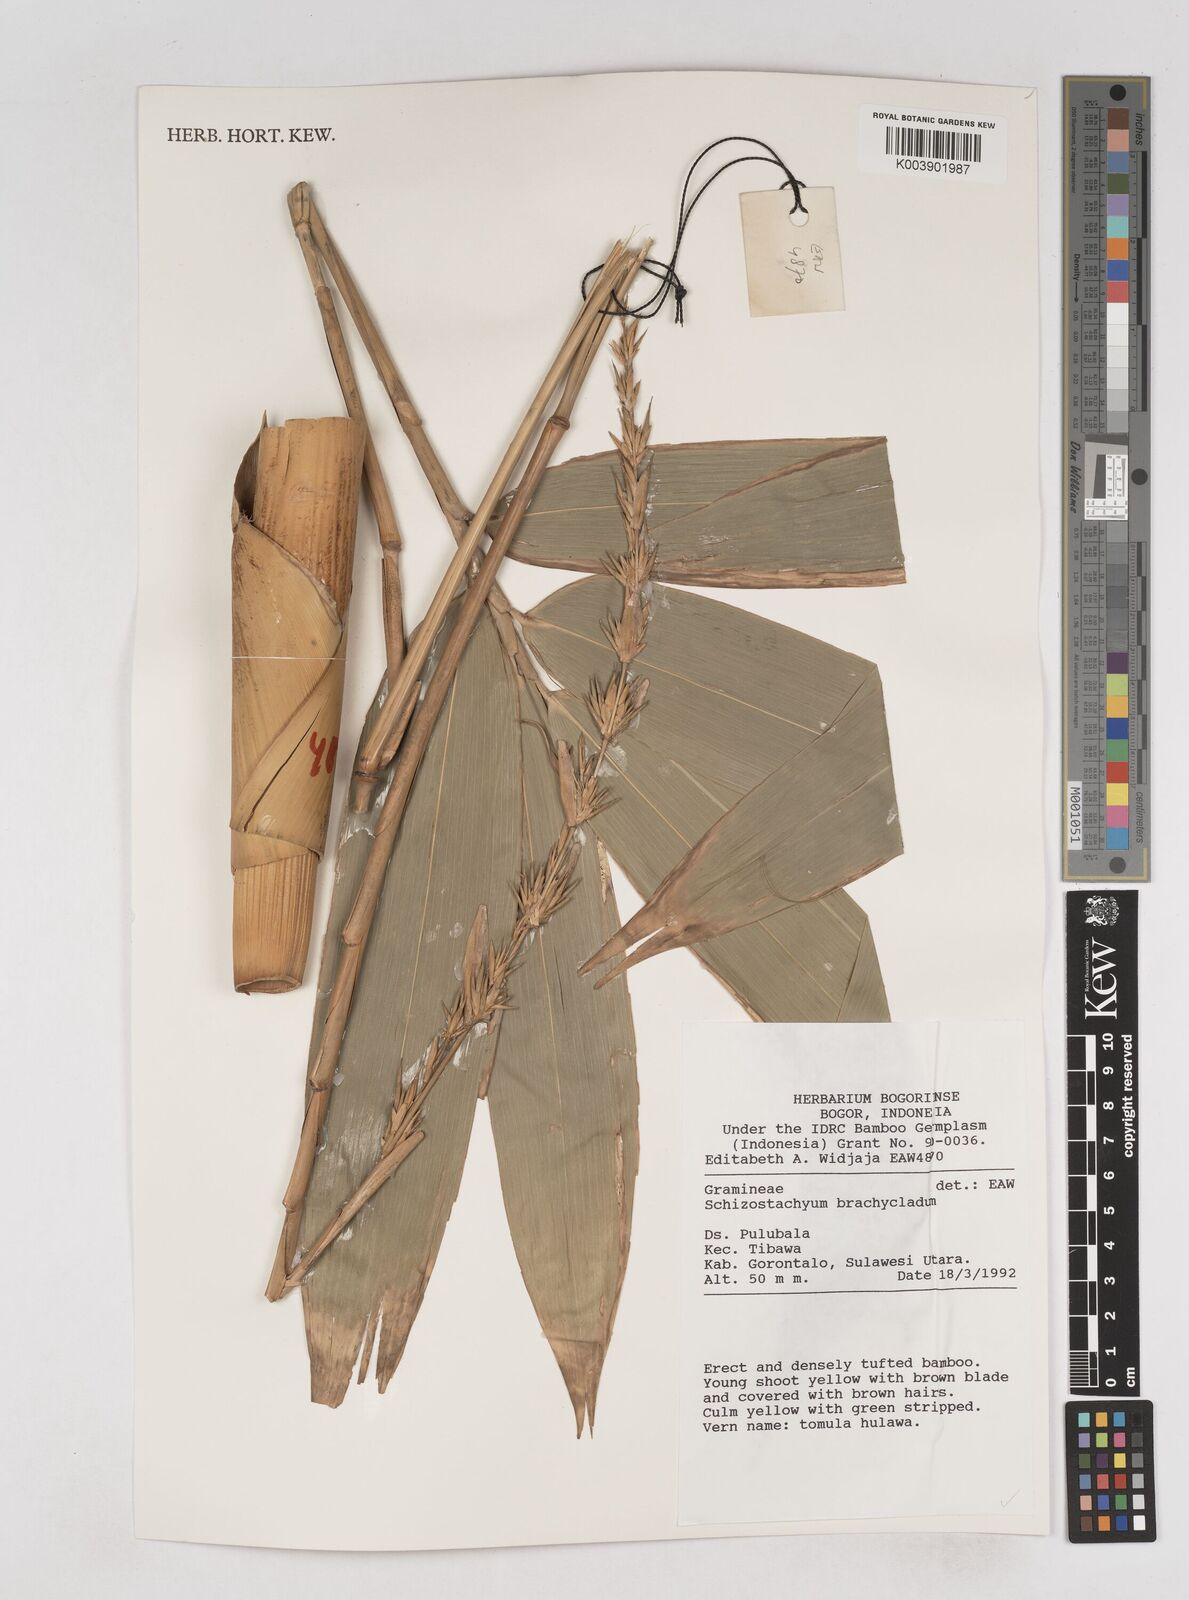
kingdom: Plantae
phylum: Tracheophyta
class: Liliopsida
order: Poales
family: Poaceae
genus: Schizostachyum
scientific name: Schizostachyum brachycladum
